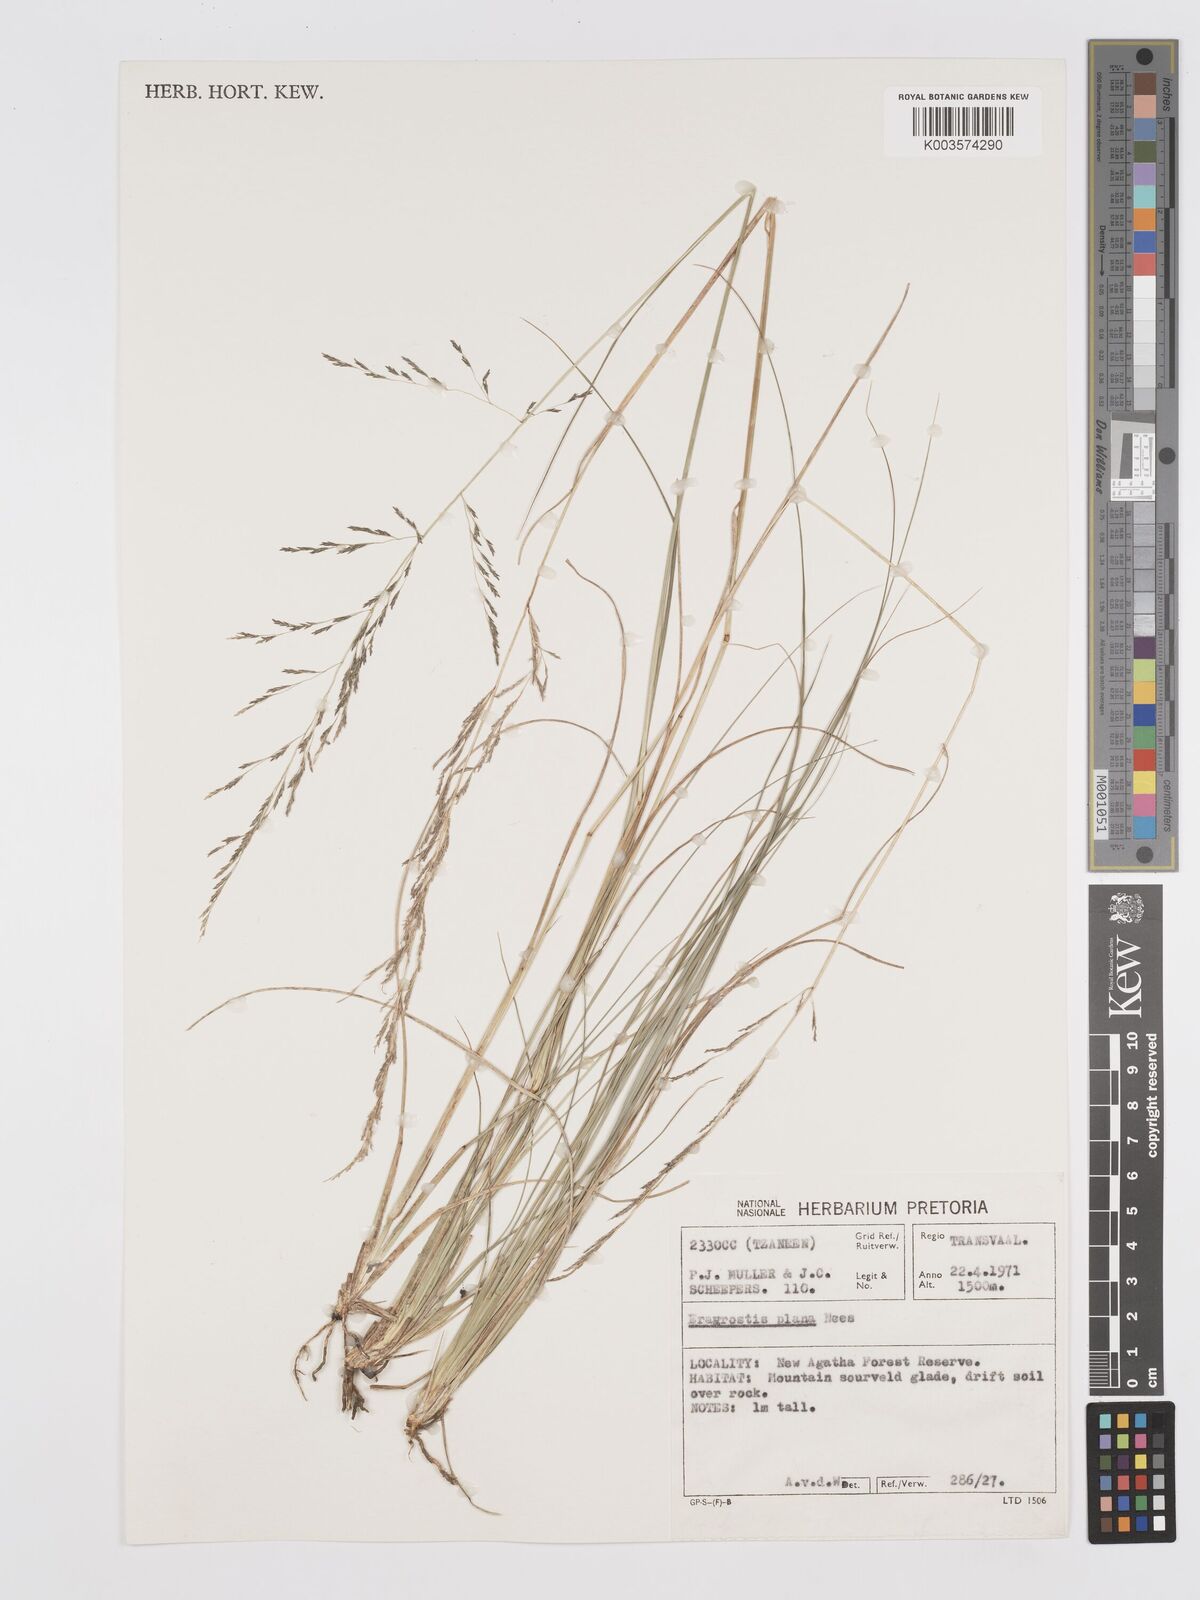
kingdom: Plantae
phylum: Tracheophyta
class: Liliopsida
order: Poales
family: Poaceae
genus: Eragrostis
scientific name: Eragrostis plana
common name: South african lovegrass
